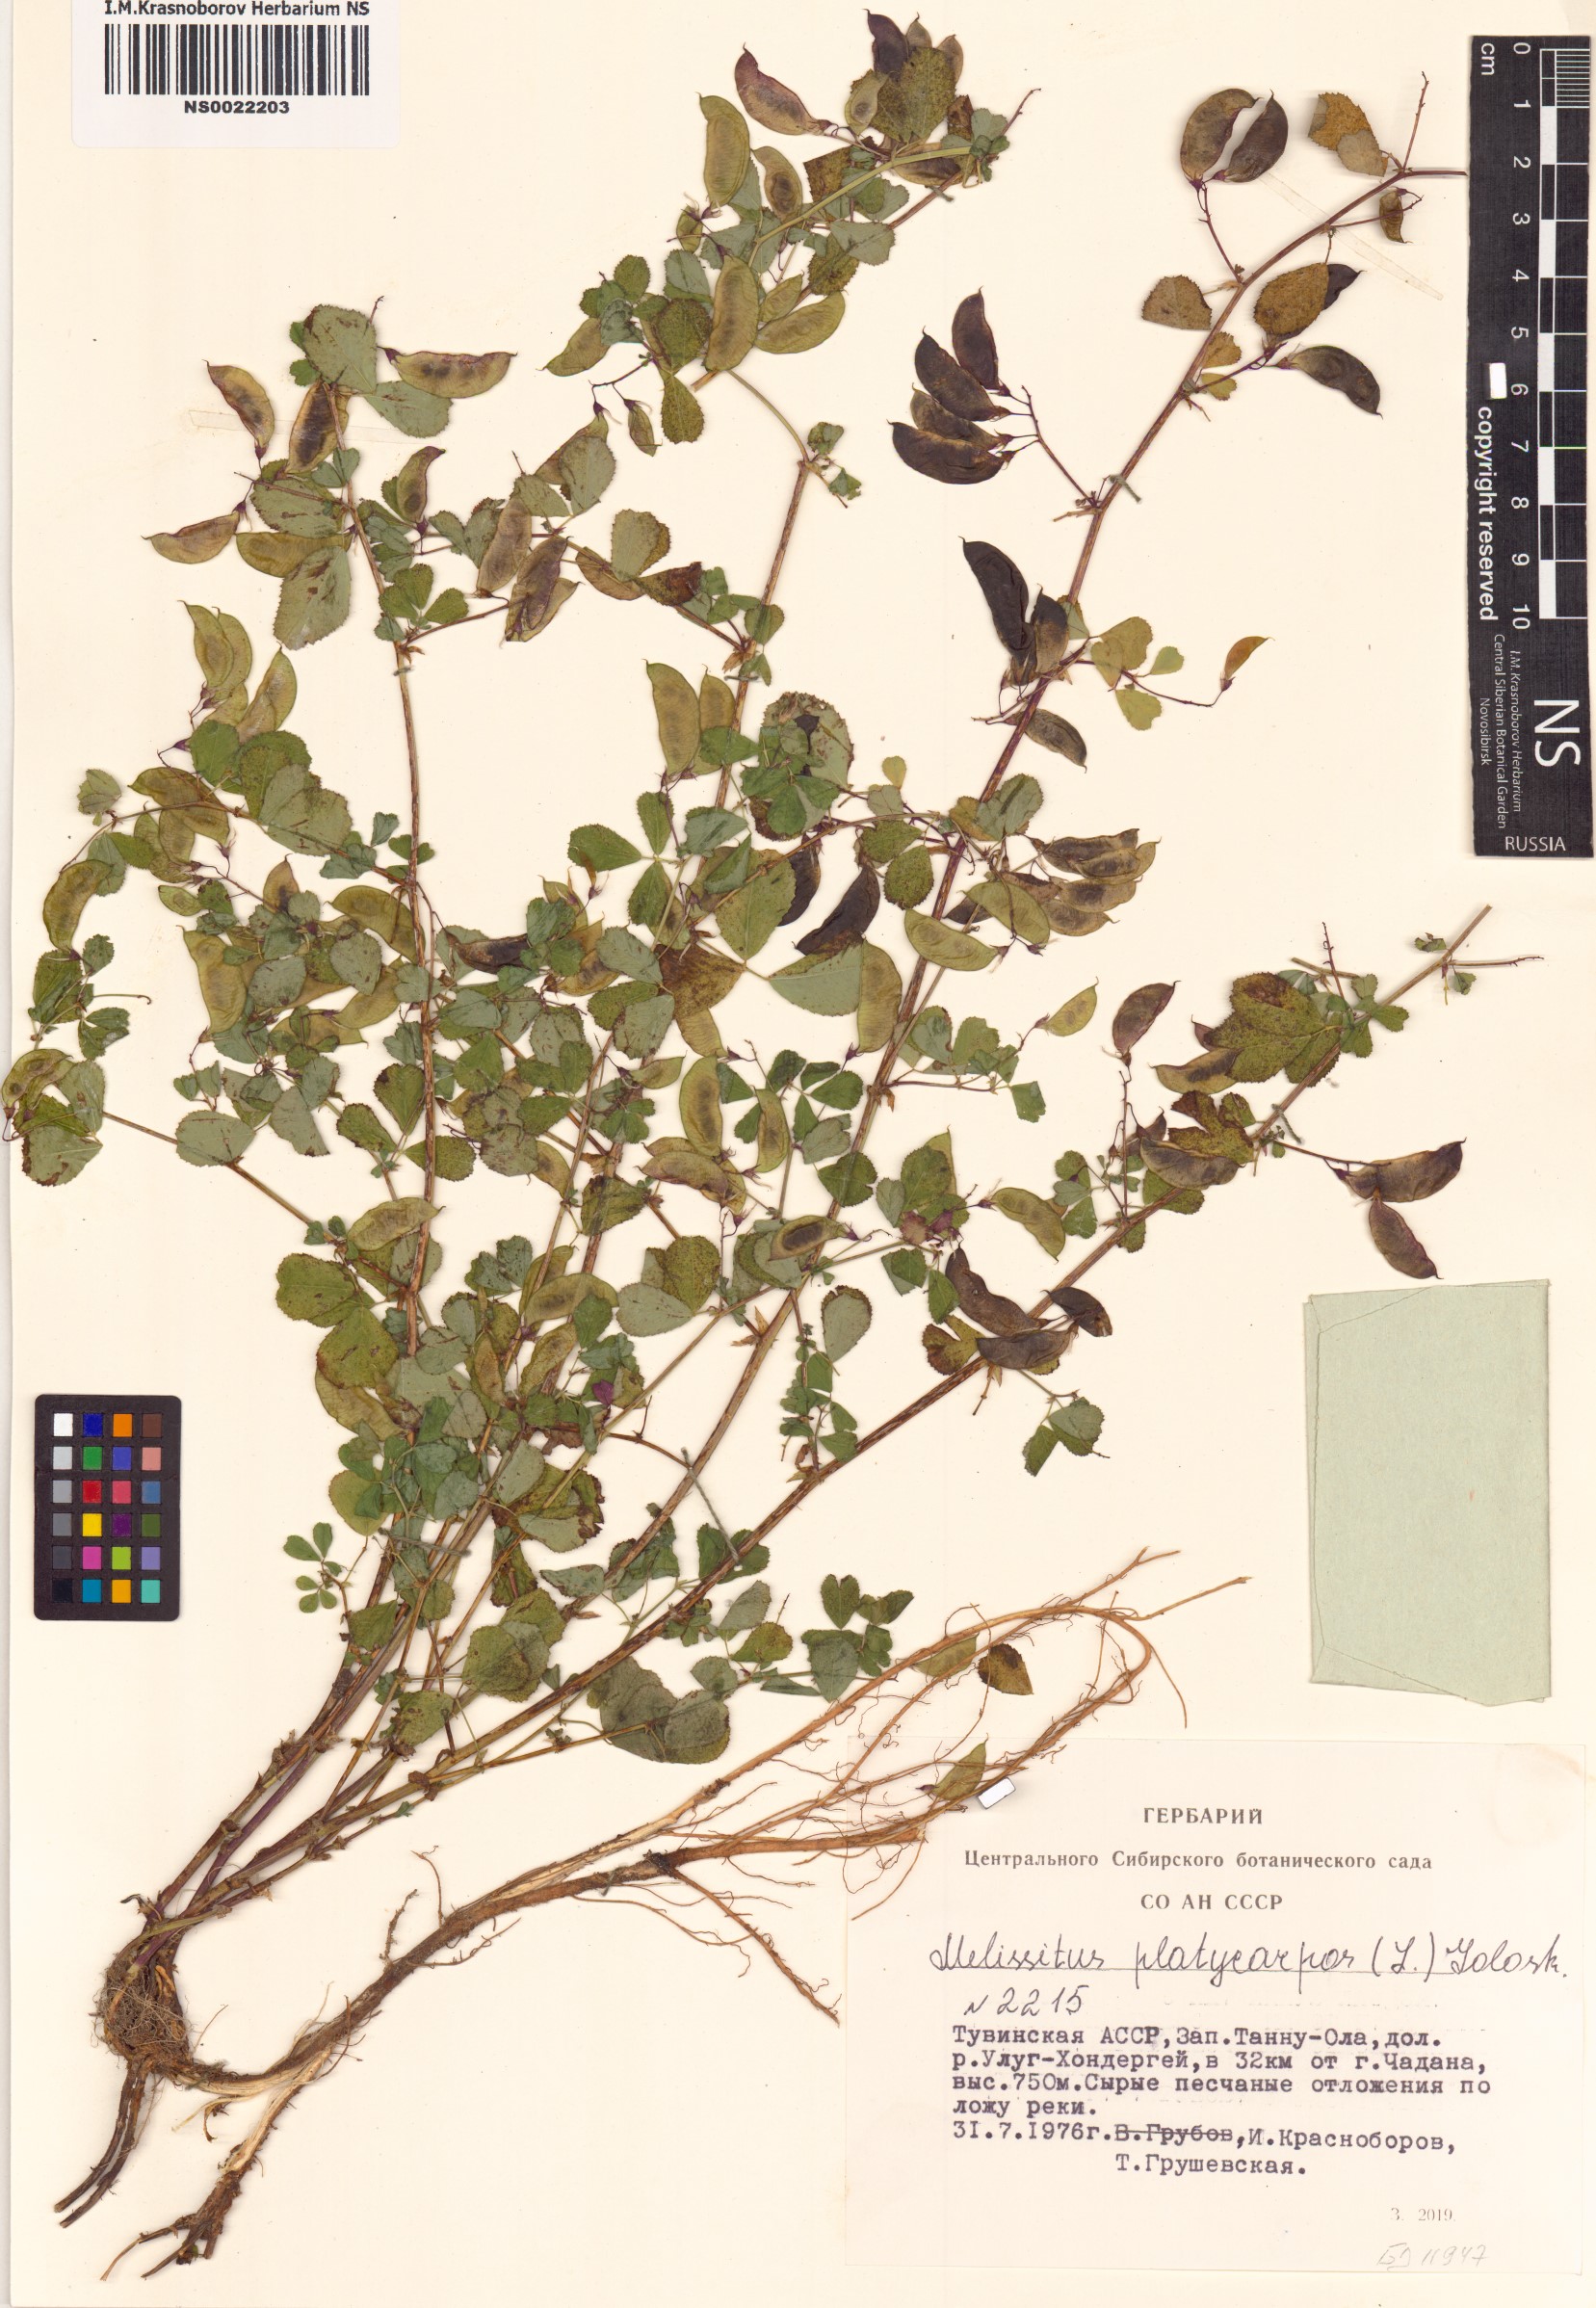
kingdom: Plantae
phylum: Tracheophyta
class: Magnoliopsida
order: Fabales
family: Fabaceae
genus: Medicago
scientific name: Medicago platycarpos
